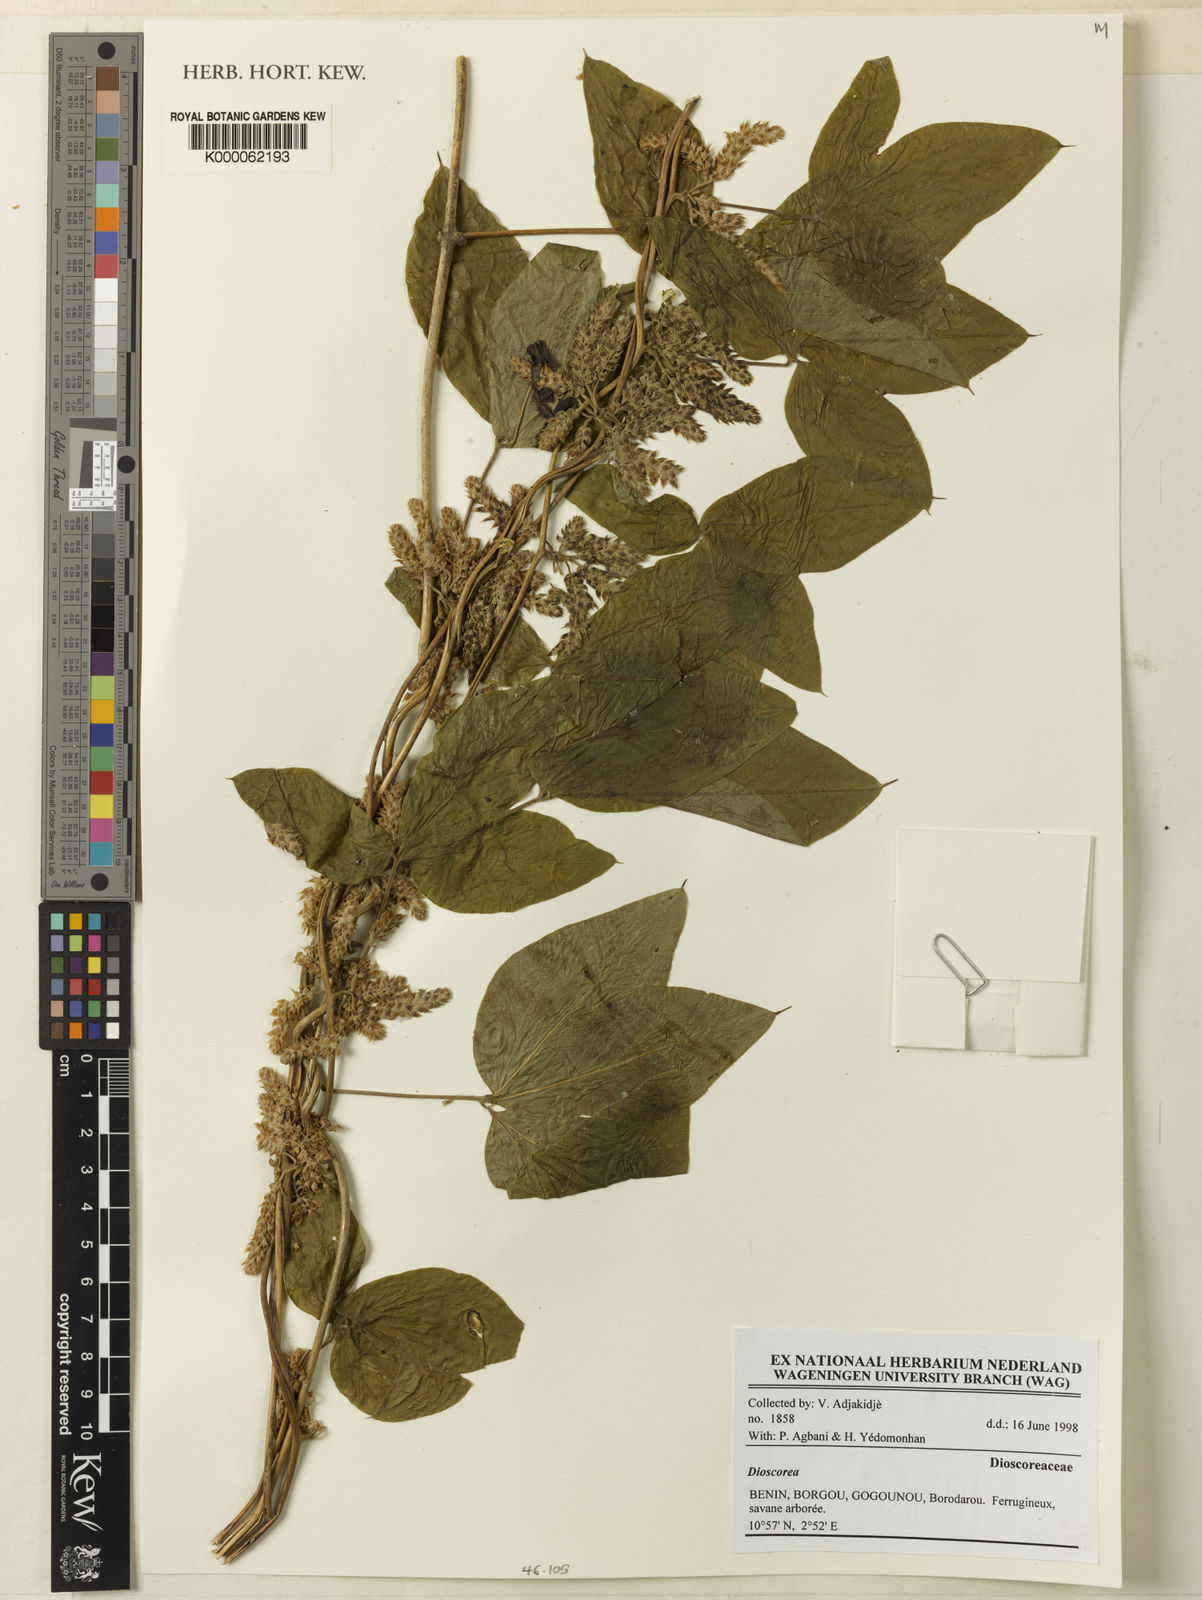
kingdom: Plantae
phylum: Tracheophyta
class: Liliopsida
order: Dioscoreales
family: Dioscoreaceae
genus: Dioscorea
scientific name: Dioscorea
